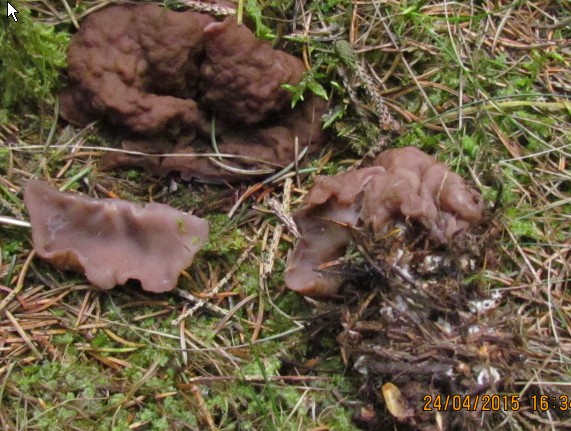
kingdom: Fungi
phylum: Ascomycota
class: Pezizomycetes
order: Pezizales
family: Discinaceae
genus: Discina
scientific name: Discina ancilis
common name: udbredt stenmorkel
